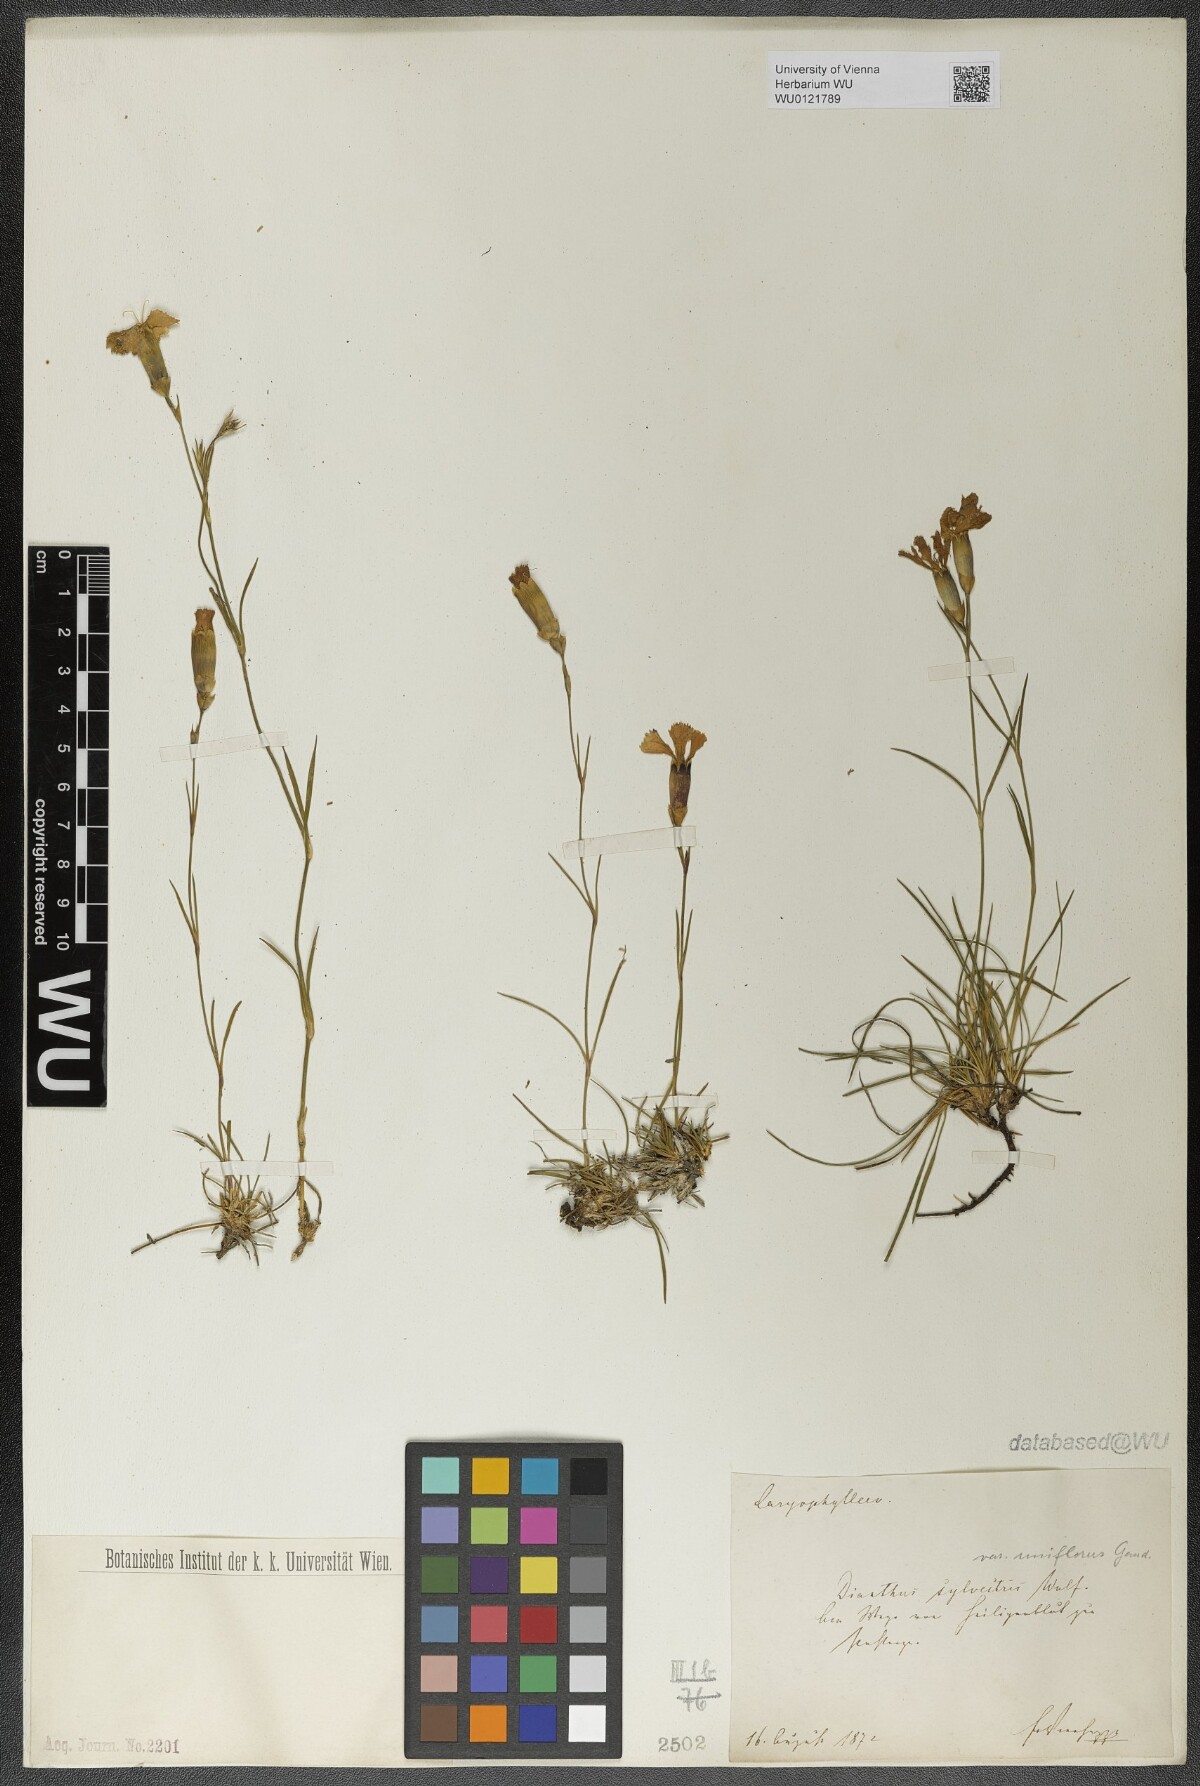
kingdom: Plantae
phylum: Tracheophyta
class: Magnoliopsida
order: Caryophyllales
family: Caryophyllaceae
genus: Dianthus
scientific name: Dianthus sylvestris
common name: Wood pink
